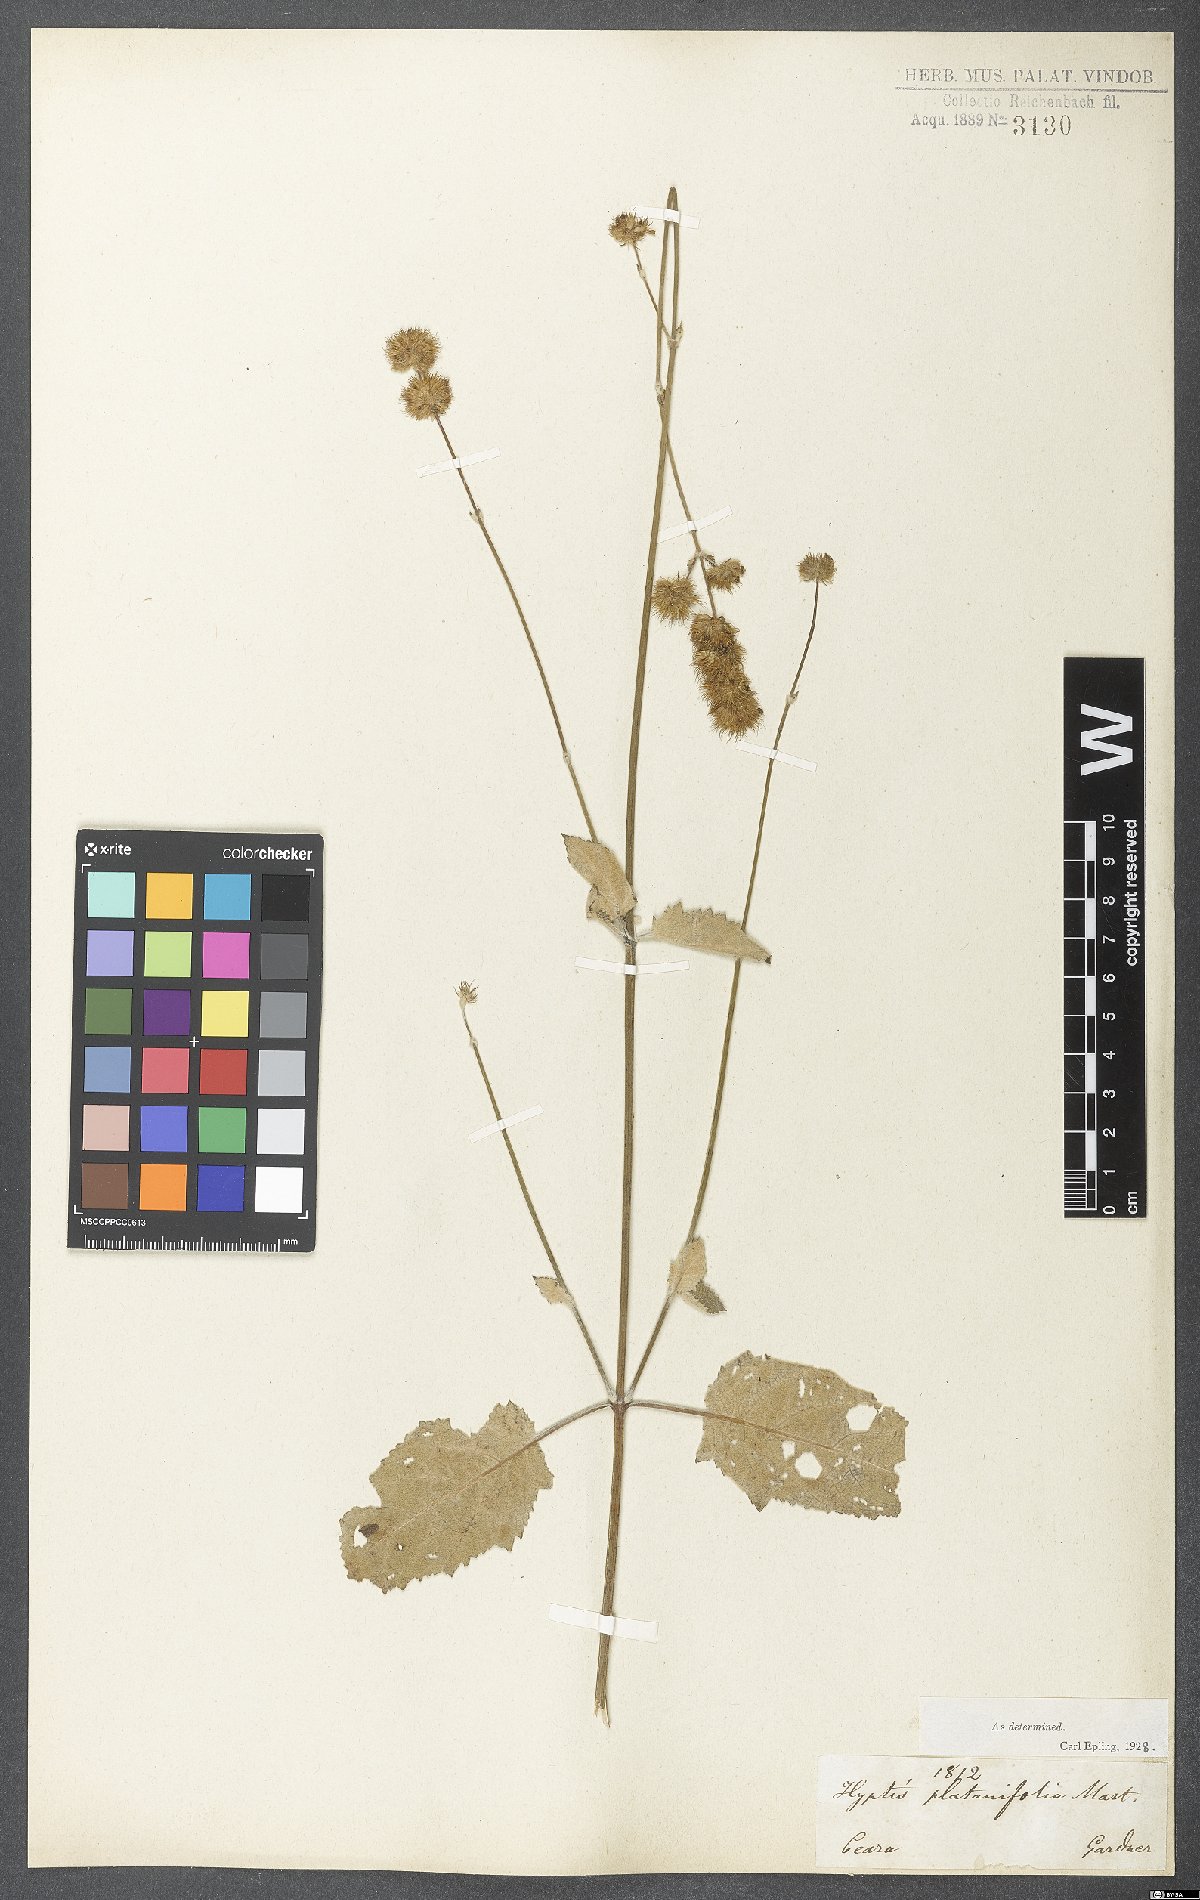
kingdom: Plantae
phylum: Tracheophyta
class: Magnoliopsida
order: Lamiales
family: Lamiaceae
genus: Gymneia
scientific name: Gymneia platanifolia
